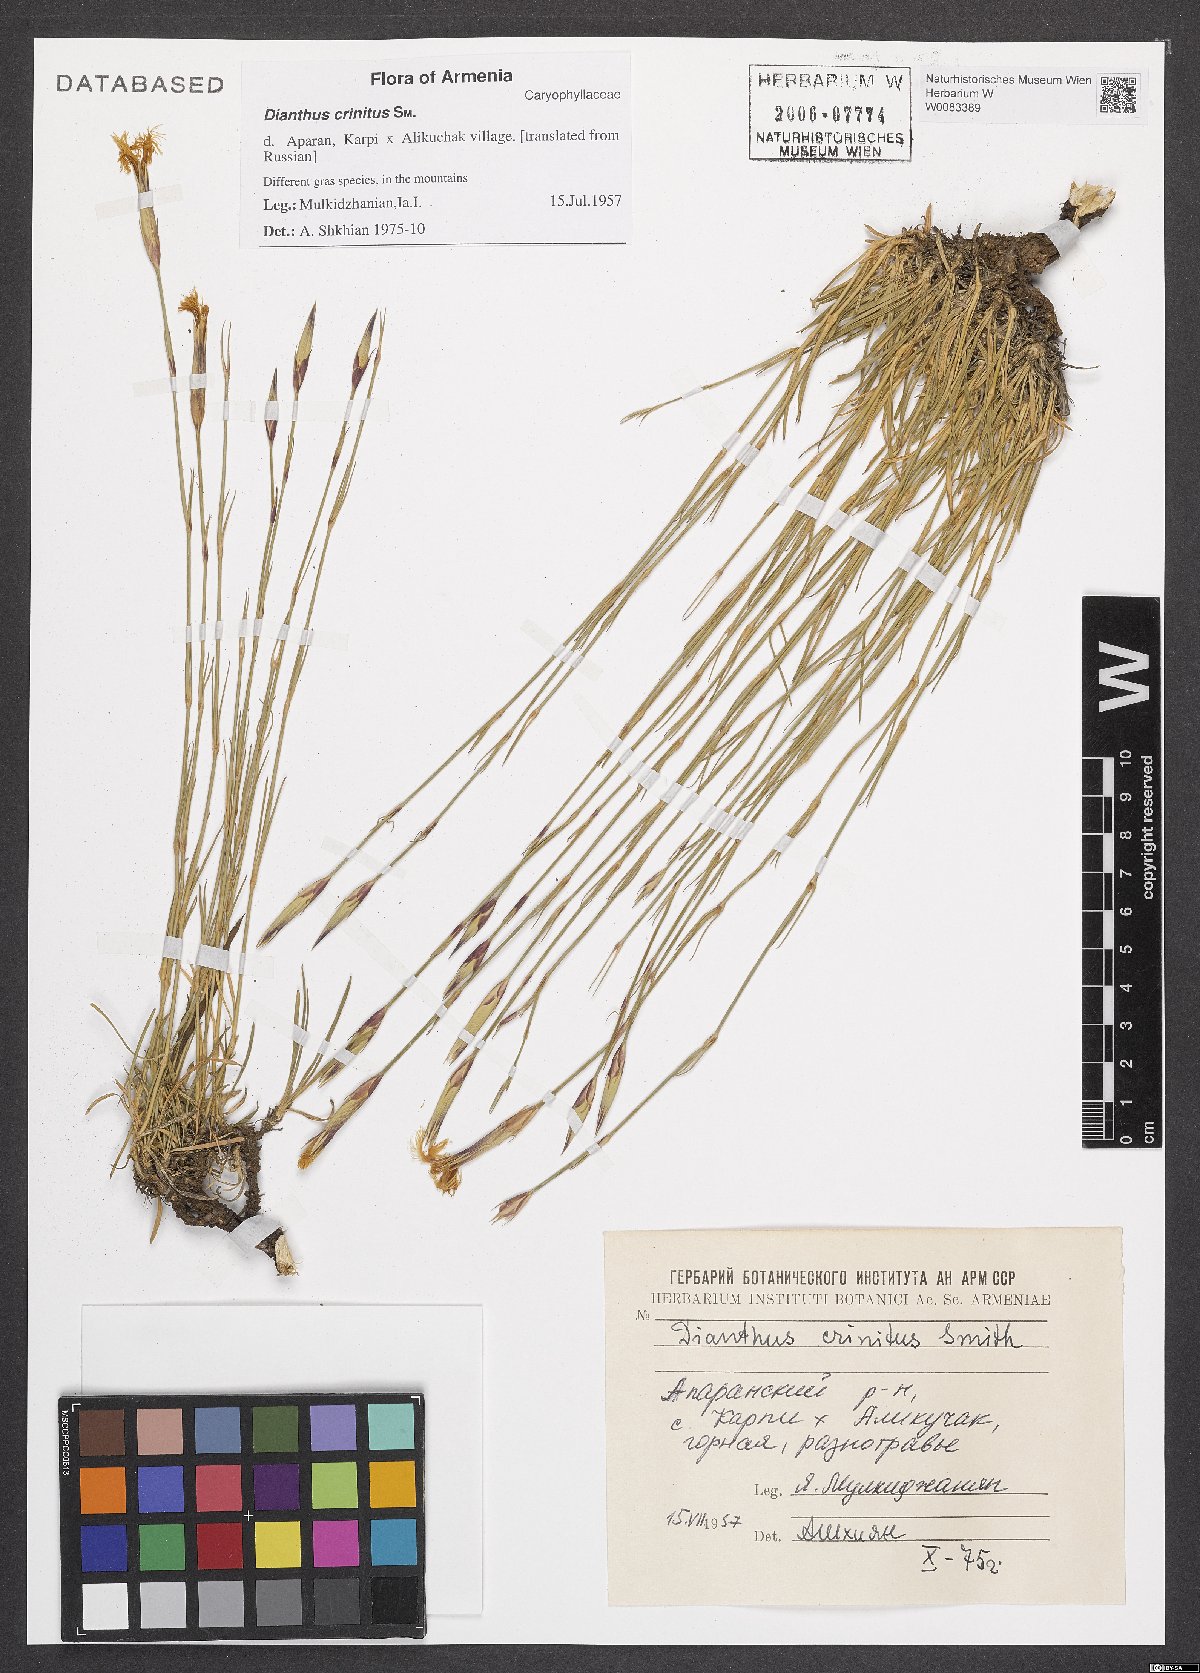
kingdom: Plantae
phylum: Tracheophyta
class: Magnoliopsida
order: Caryophyllales
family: Caryophyllaceae
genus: Dianthus
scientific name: Dianthus crinitus
